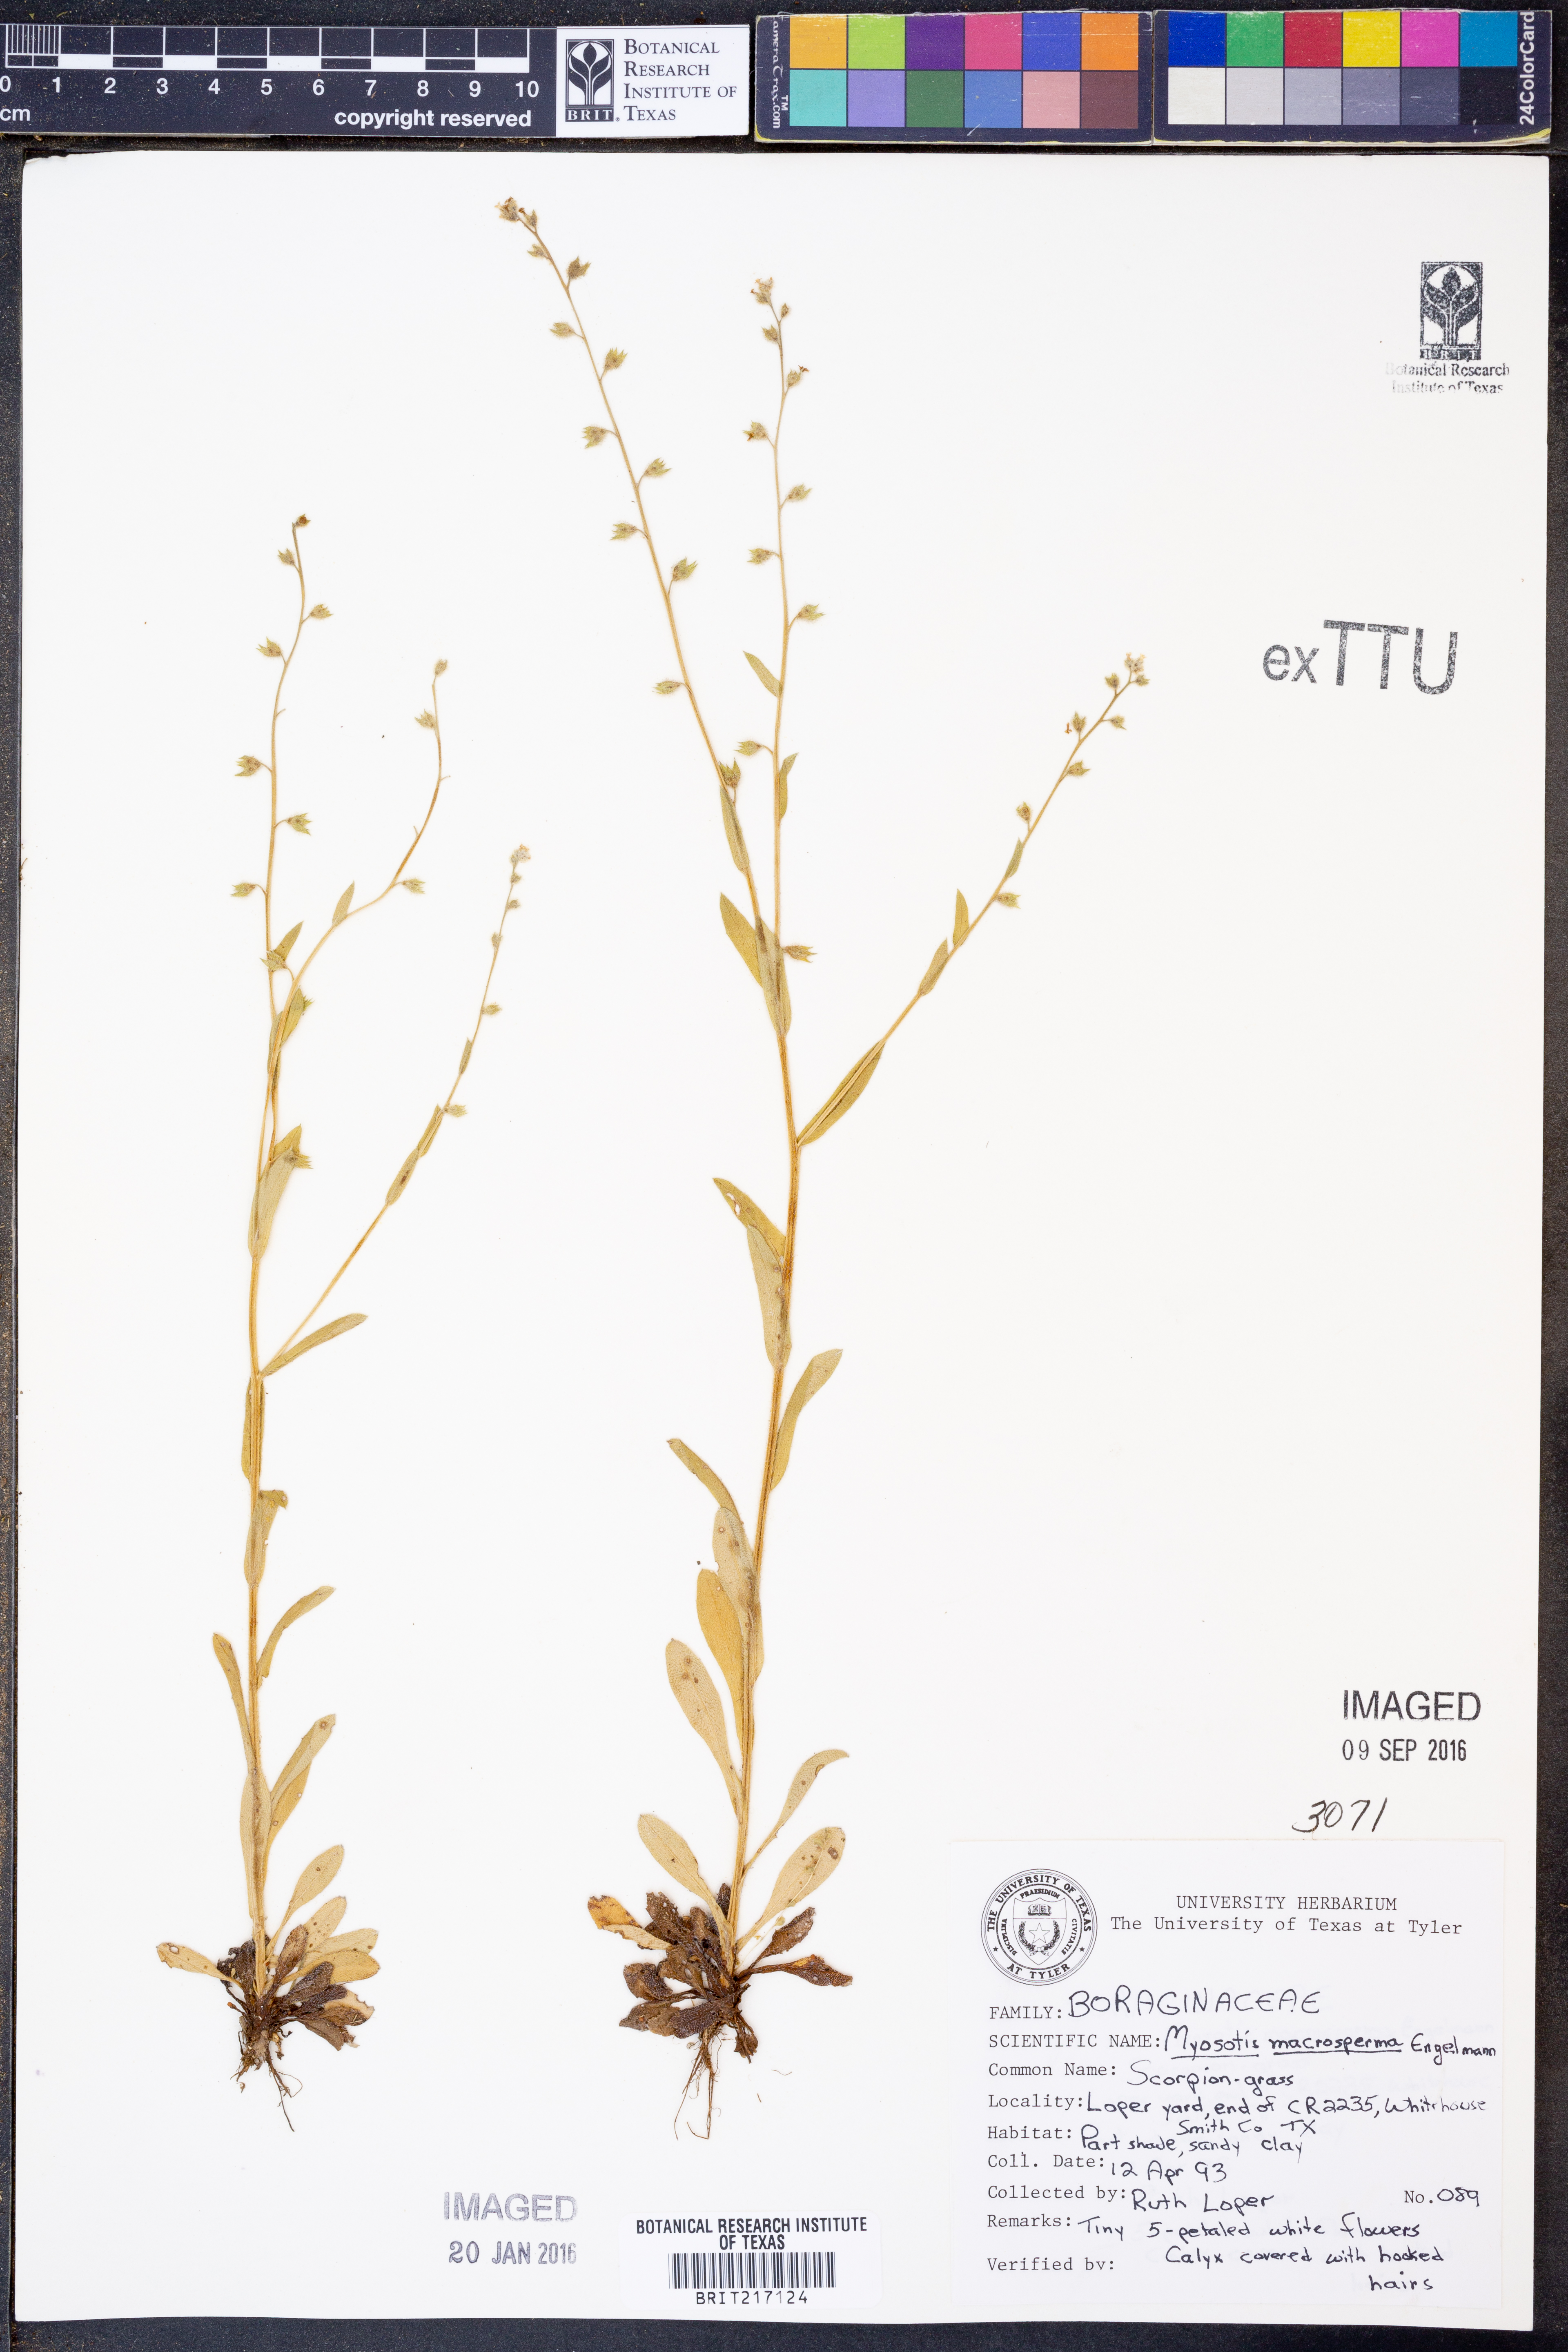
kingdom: Plantae
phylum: Tracheophyta
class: Magnoliopsida
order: Boraginales
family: Boraginaceae
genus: Myosotis
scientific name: Myosotis macrosperma
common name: Large-seed forget-me-not
